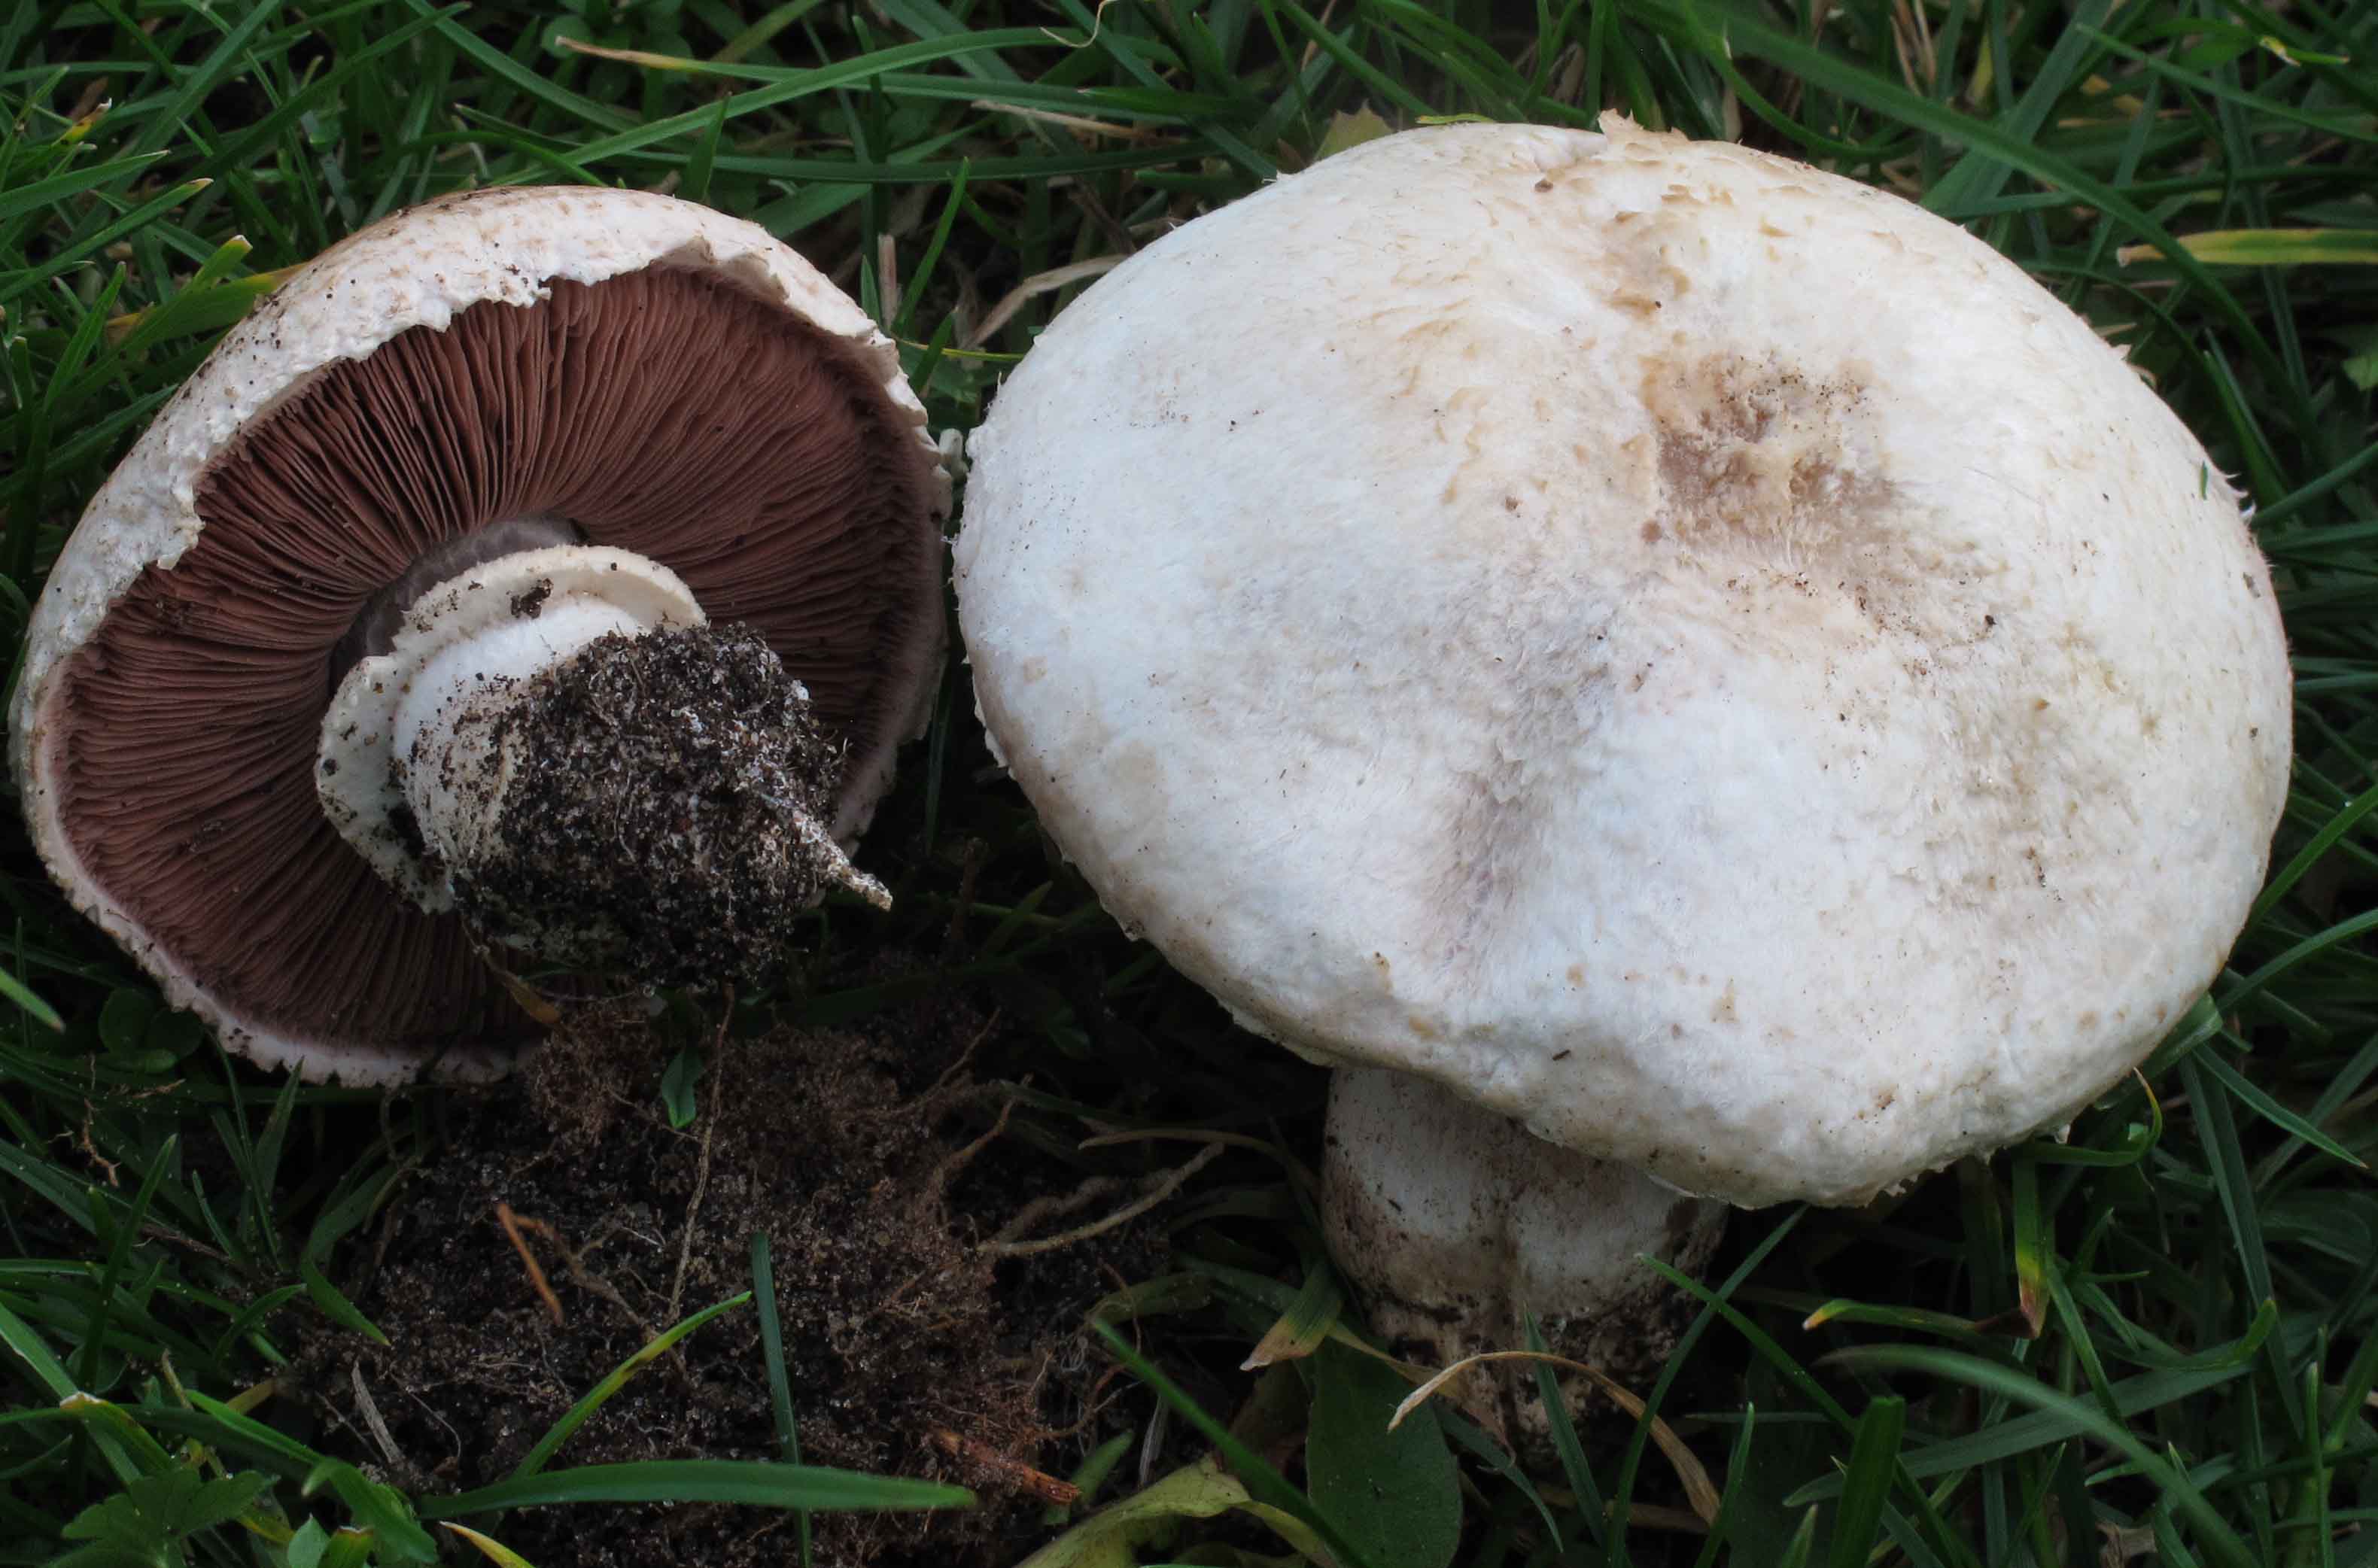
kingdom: Fungi
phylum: Basidiomycota
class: Agaricomycetes
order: Agaricales
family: Agaricaceae
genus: Agaricus
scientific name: Agaricus litoralis
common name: kyst-champignon
